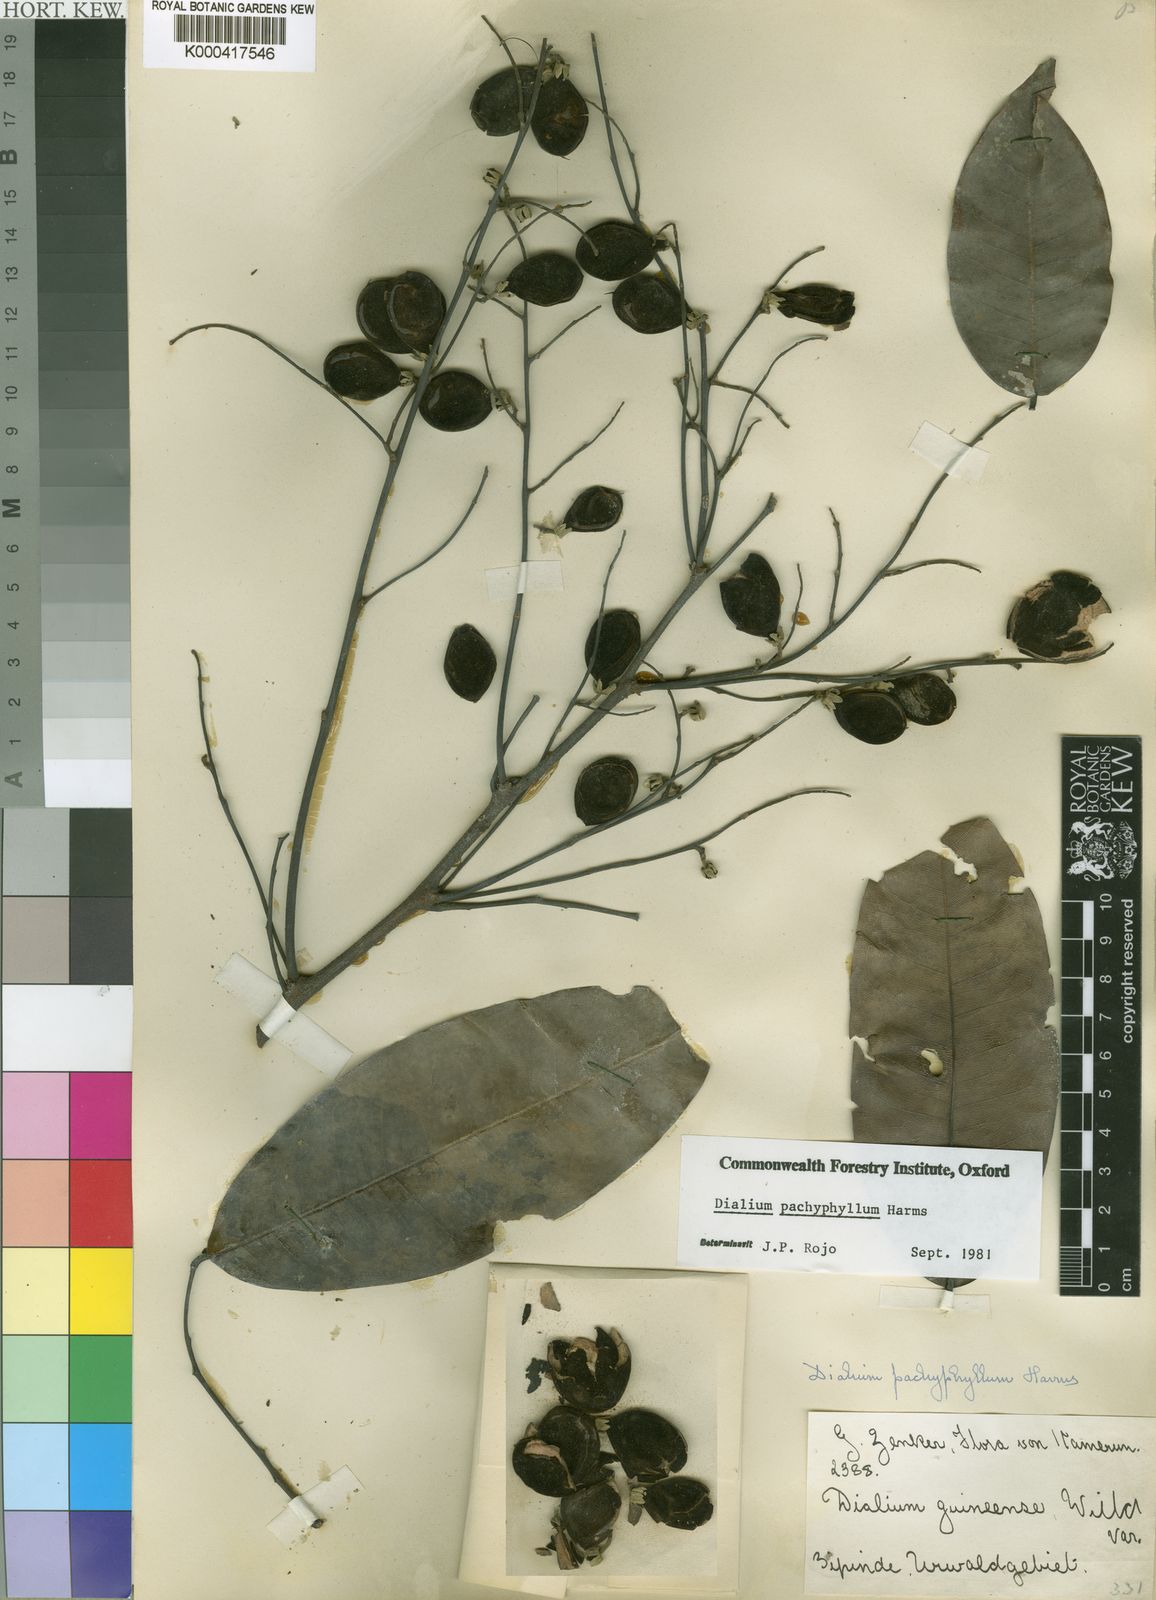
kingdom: Plantae
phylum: Tracheophyta
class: Magnoliopsida
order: Fabales
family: Fabaceae
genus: Dialium
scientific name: Dialium pachyphyllum
